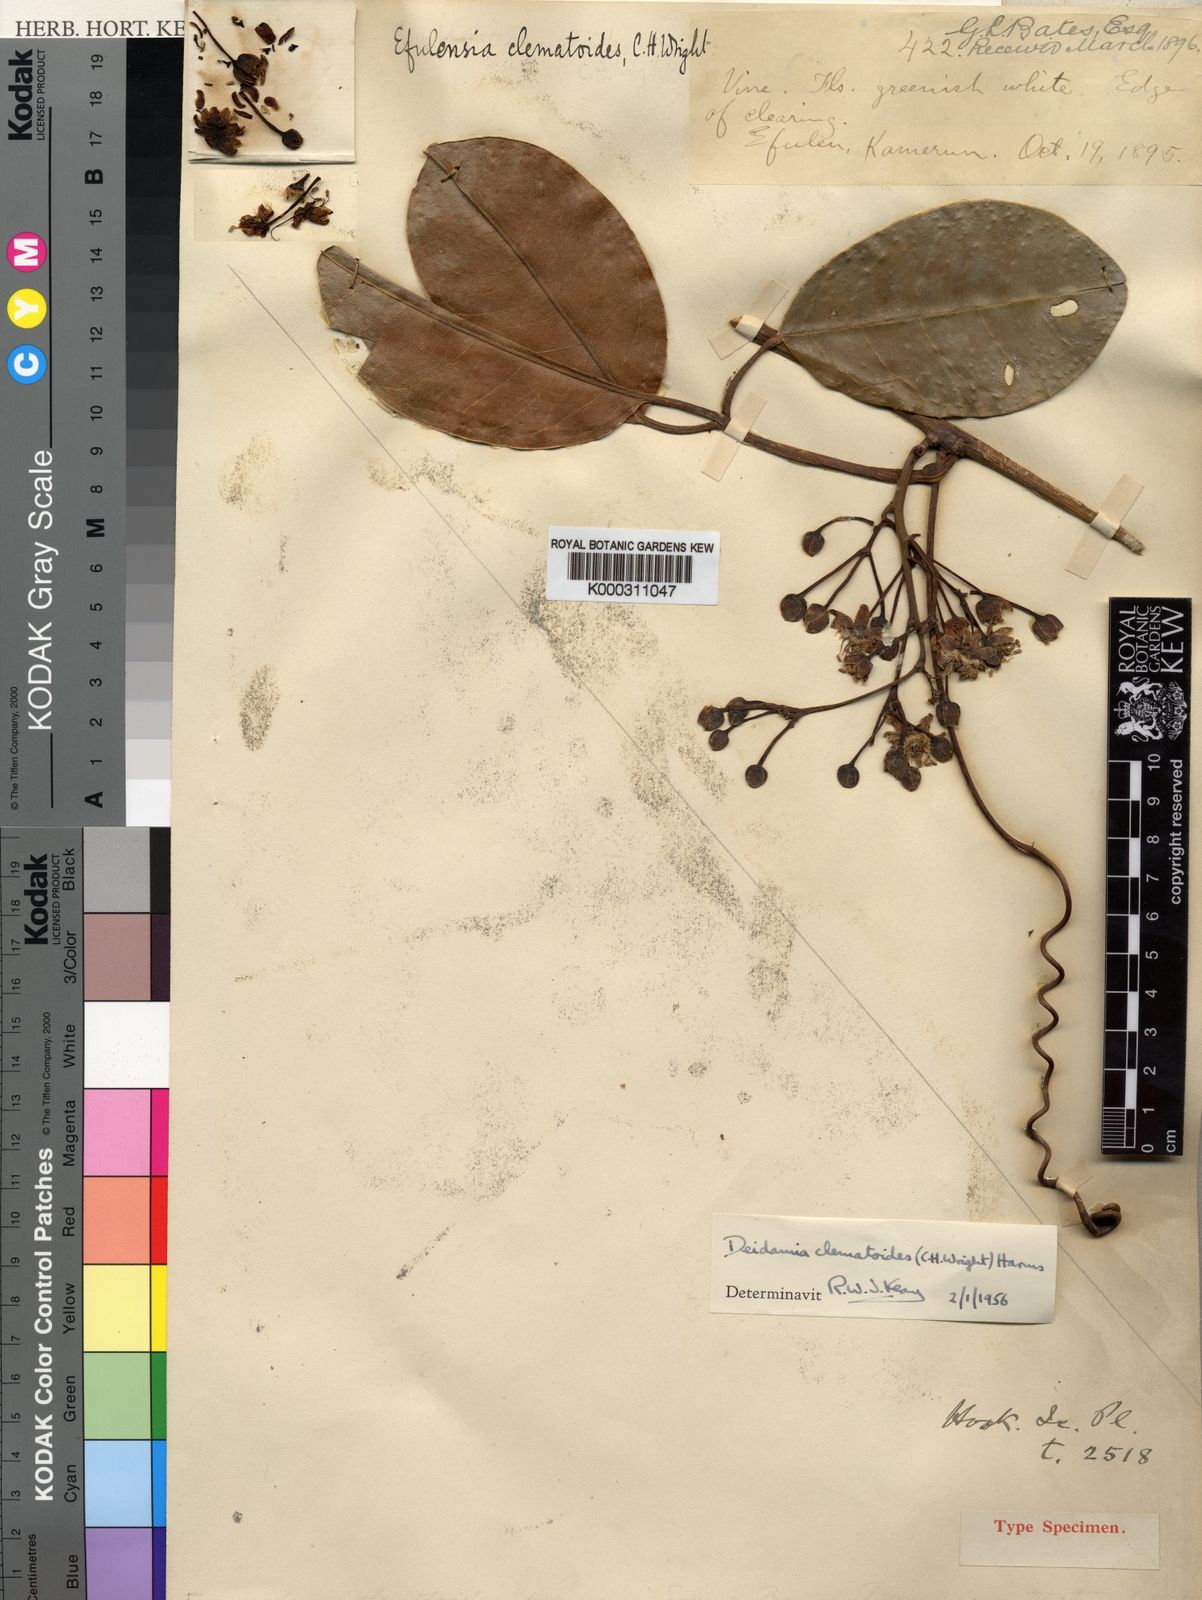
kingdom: Plantae
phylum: Tracheophyta
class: Magnoliopsida
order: Malpighiales
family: Passifloraceae
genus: Efulensia
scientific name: Efulensia clematoides
